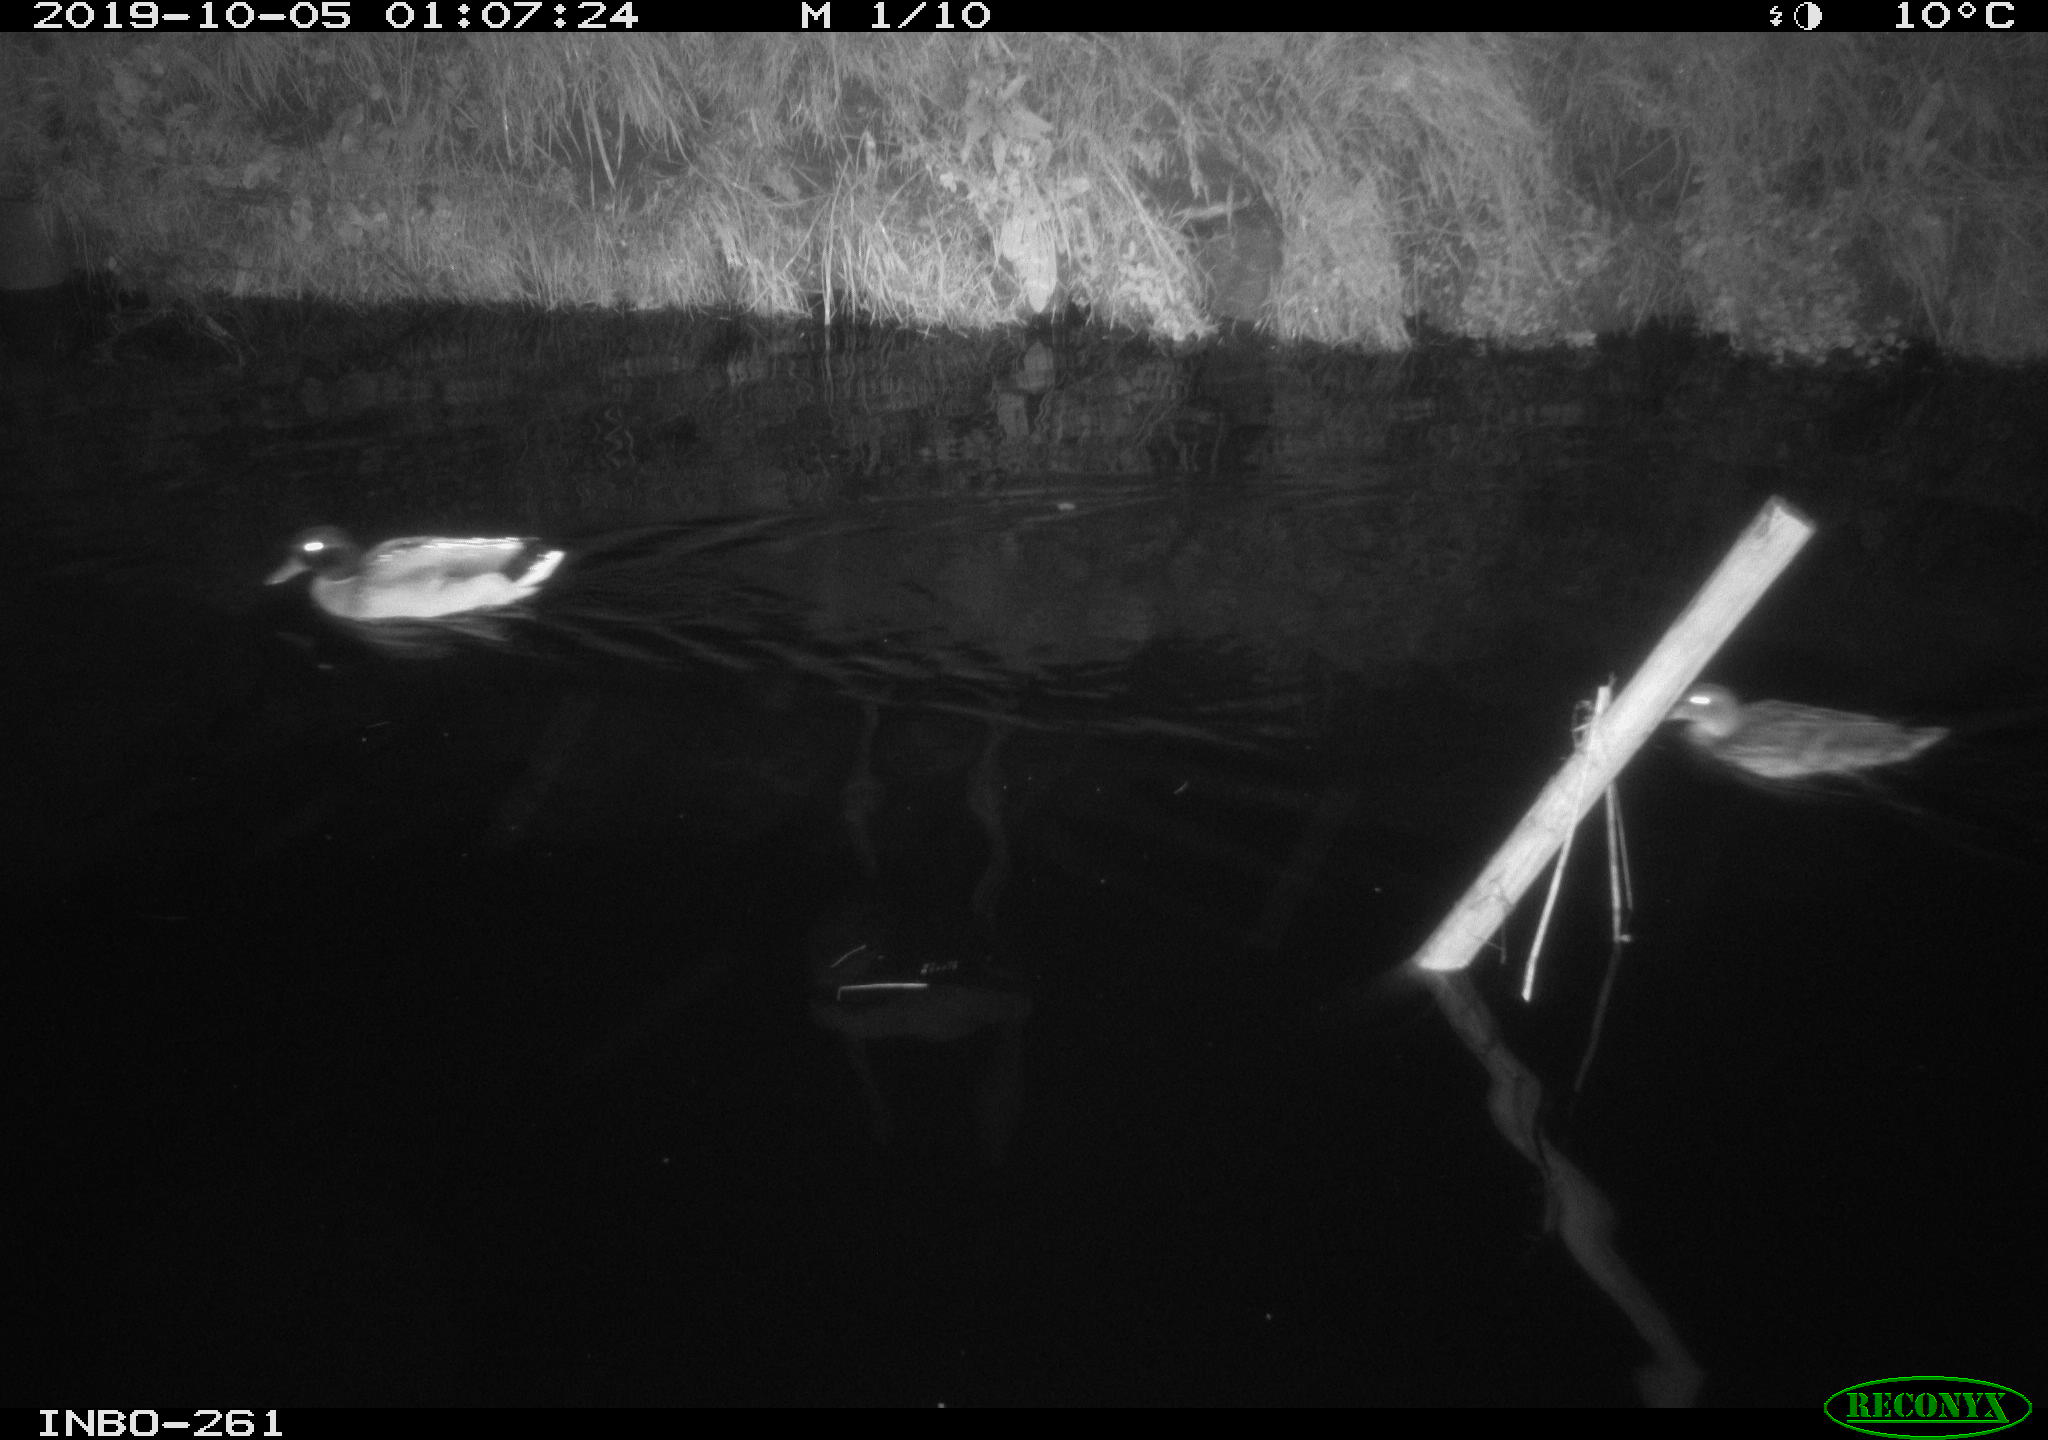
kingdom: Animalia
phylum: Chordata
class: Aves
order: Anseriformes
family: Anatidae
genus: Anas
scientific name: Anas platyrhynchos
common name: Mallard
